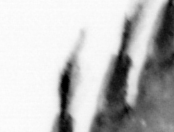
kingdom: Animalia
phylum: Annelida
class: Polychaeta
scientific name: Polychaeta
